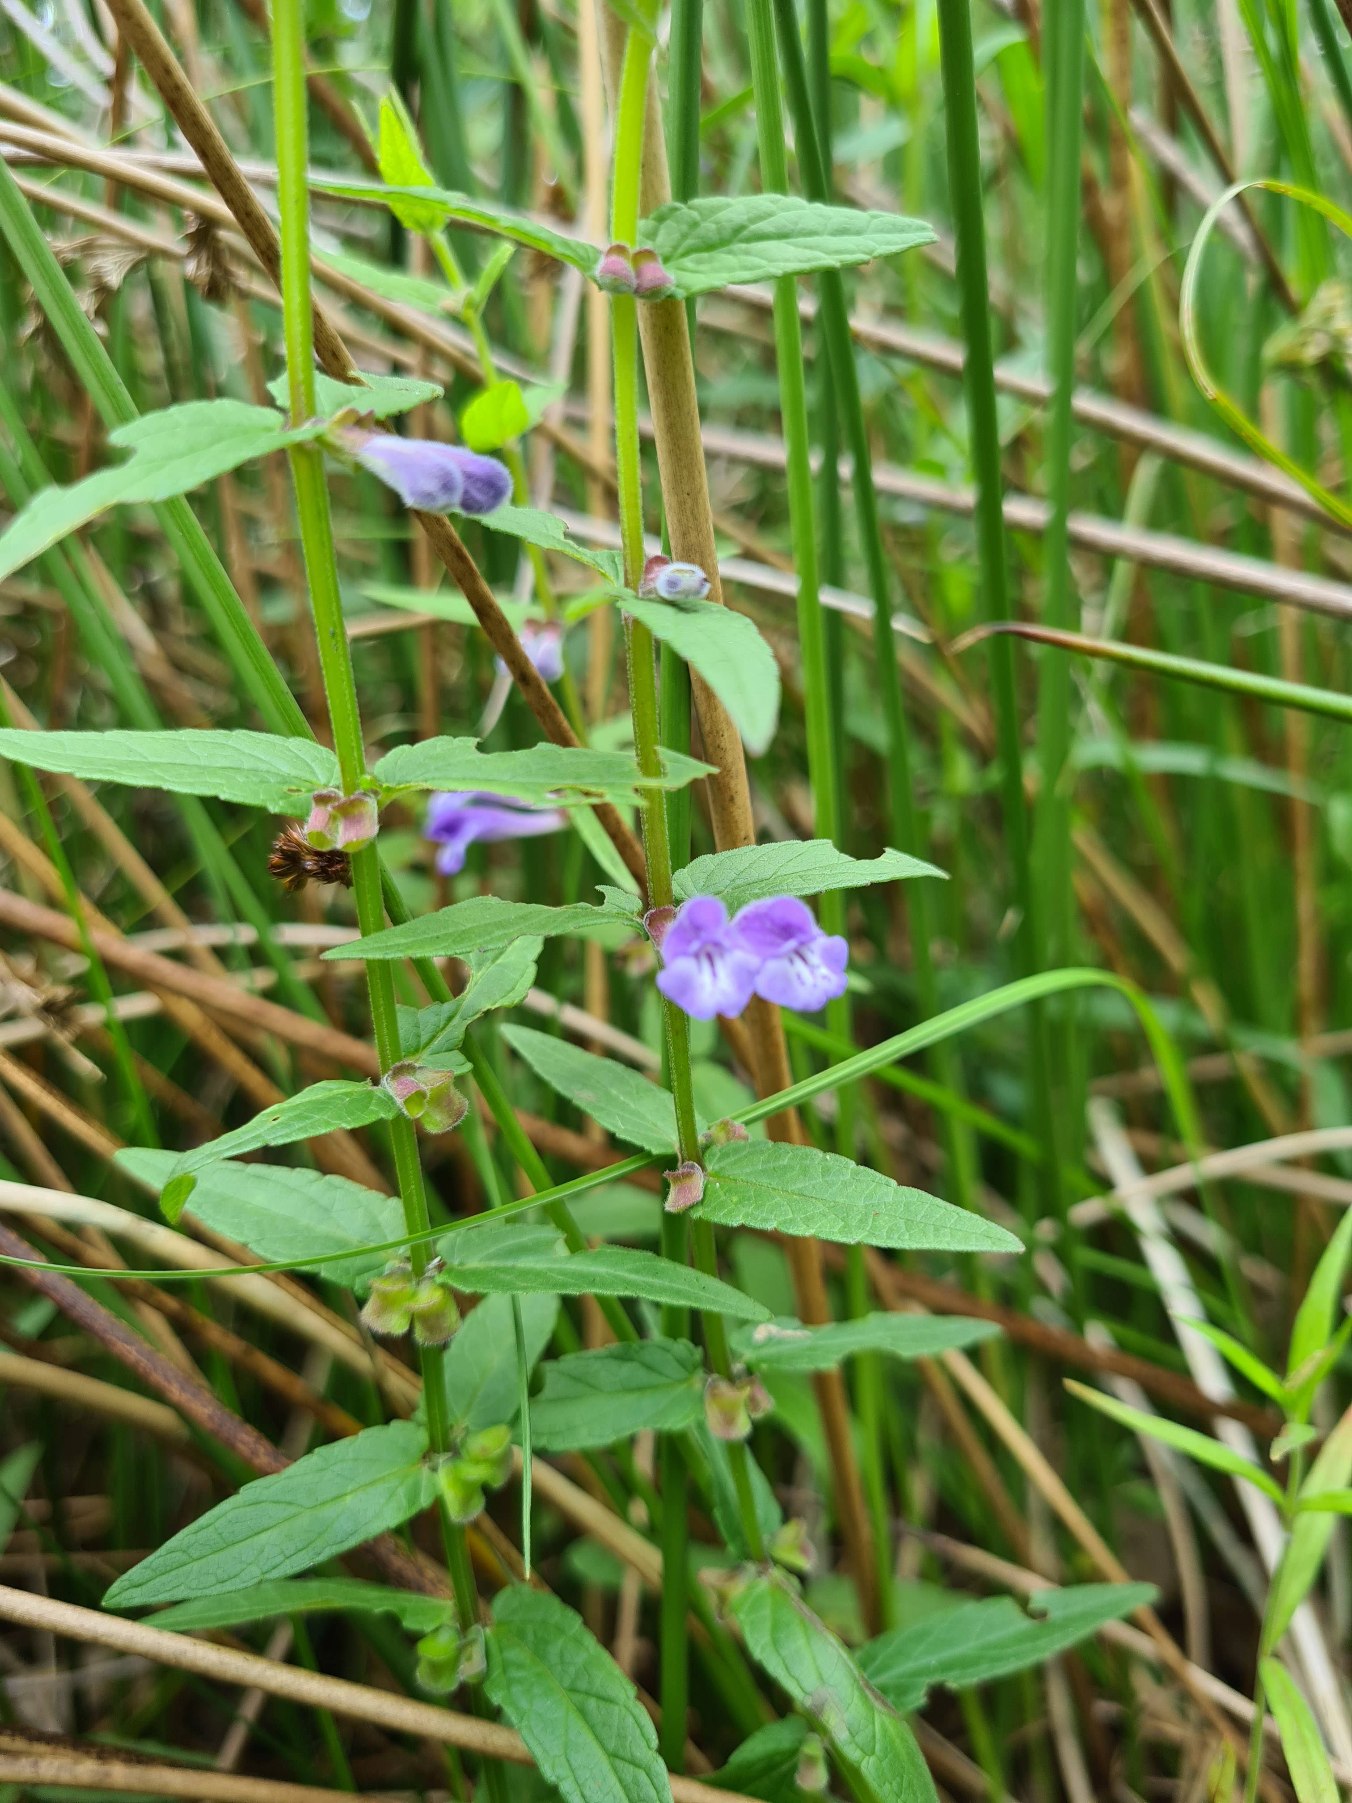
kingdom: Plantae
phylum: Tracheophyta
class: Magnoliopsida
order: Lamiales
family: Lamiaceae
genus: Scutellaria
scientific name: Scutellaria galericulata
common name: Almindelig skjolddrager
